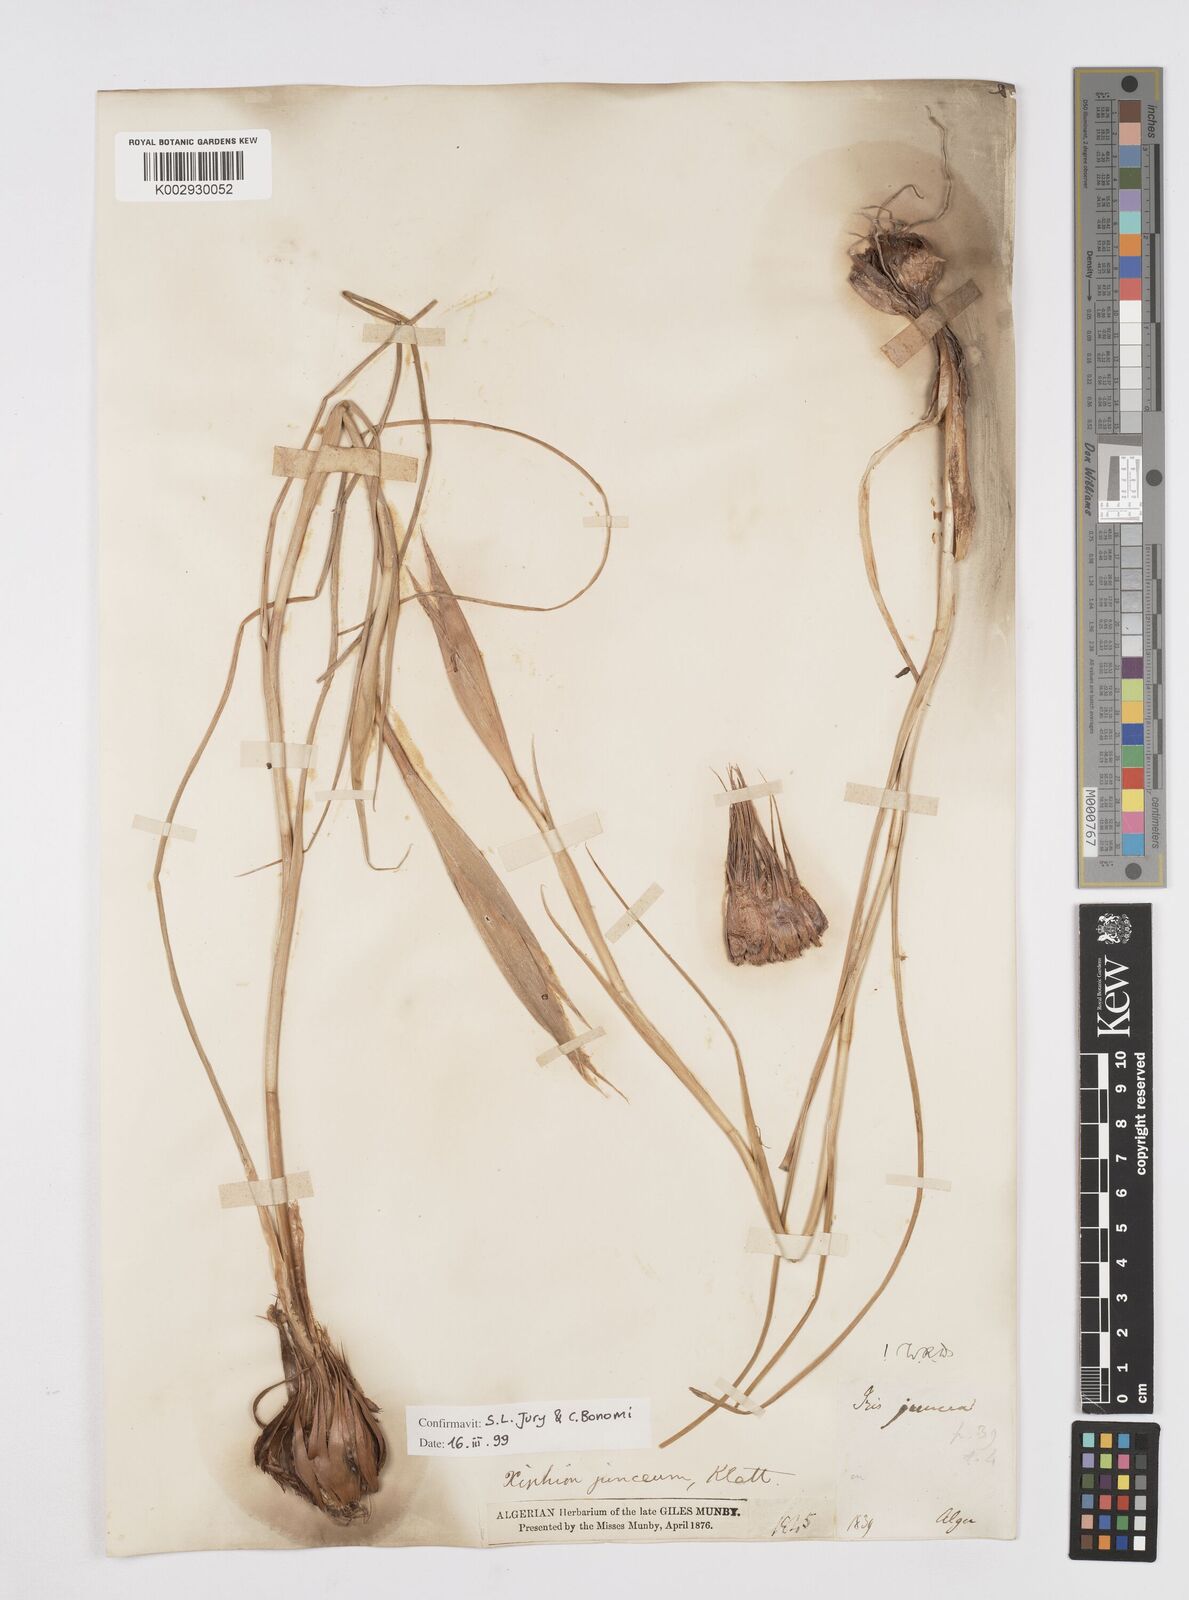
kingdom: Plantae
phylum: Tracheophyta
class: Liliopsida
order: Asparagales
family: Iridaceae
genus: Iris
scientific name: Iris juncea
